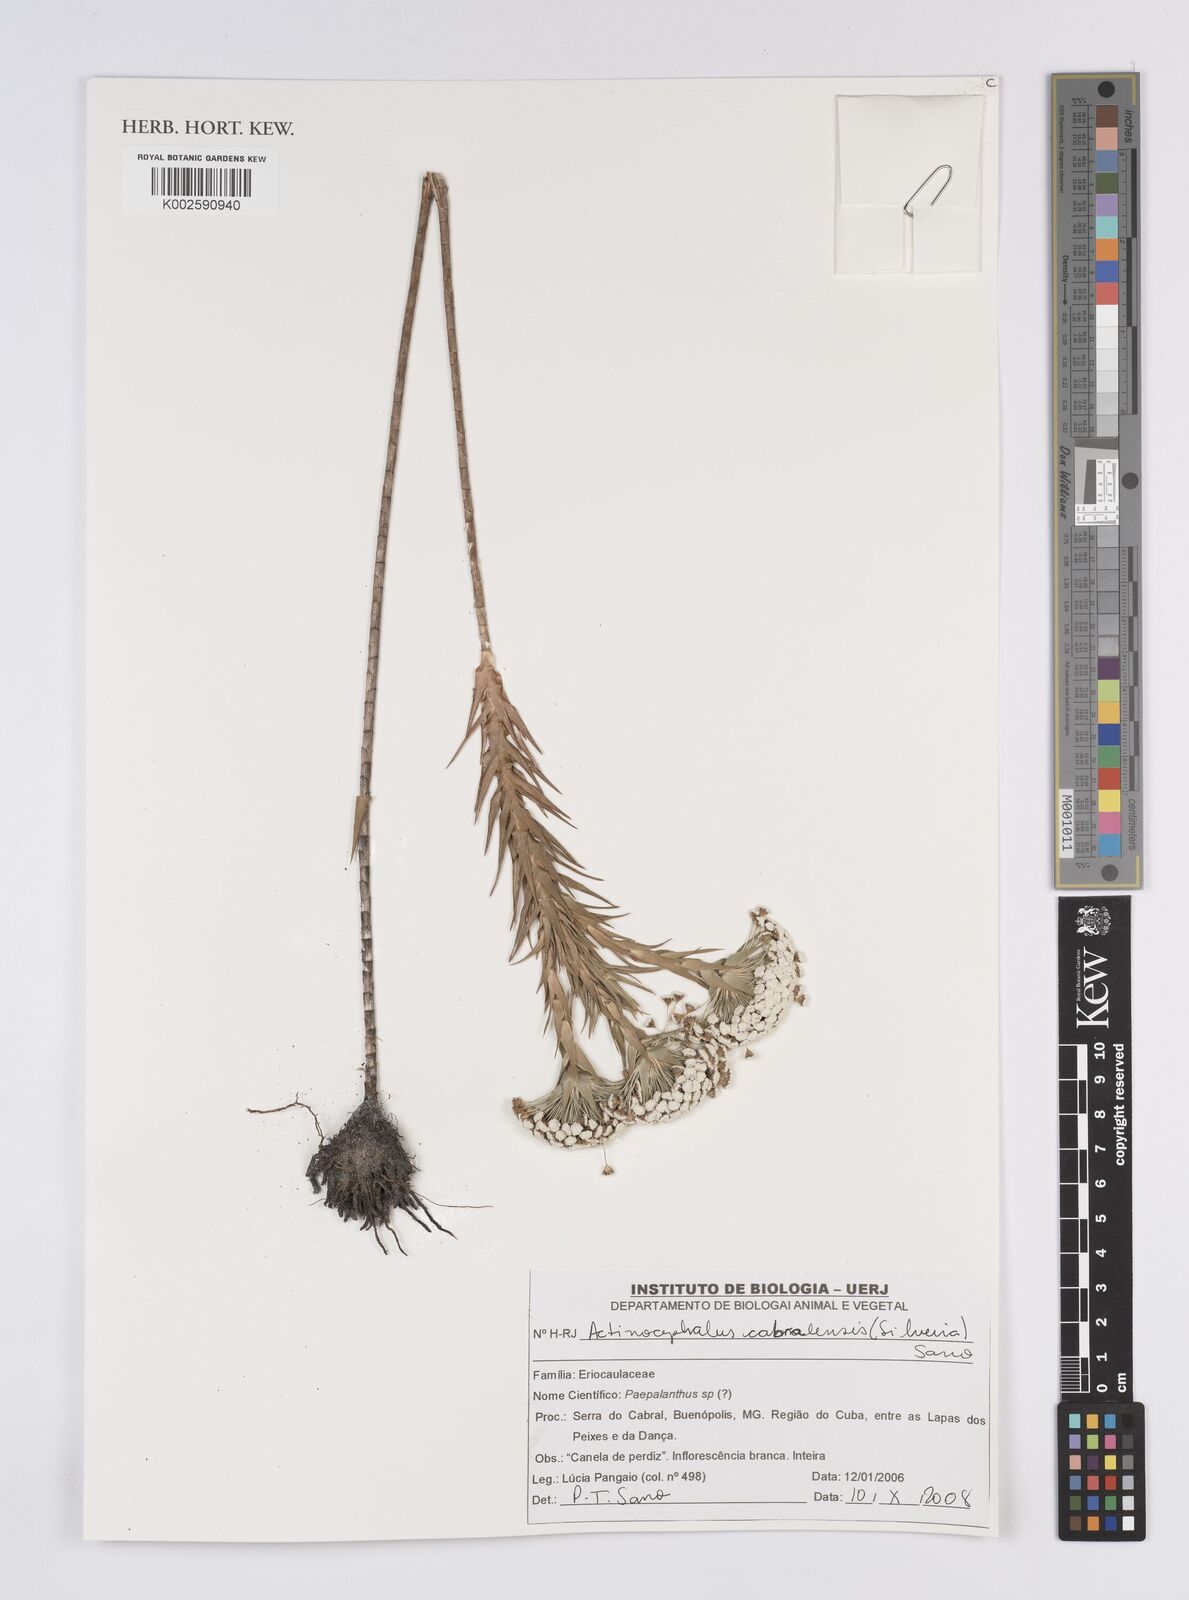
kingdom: Plantae
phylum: Tracheophyta
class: Liliopsida
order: Poales
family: Eriocaulaceae
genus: Paepalanthus
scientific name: Paepalanthus cabralensis
